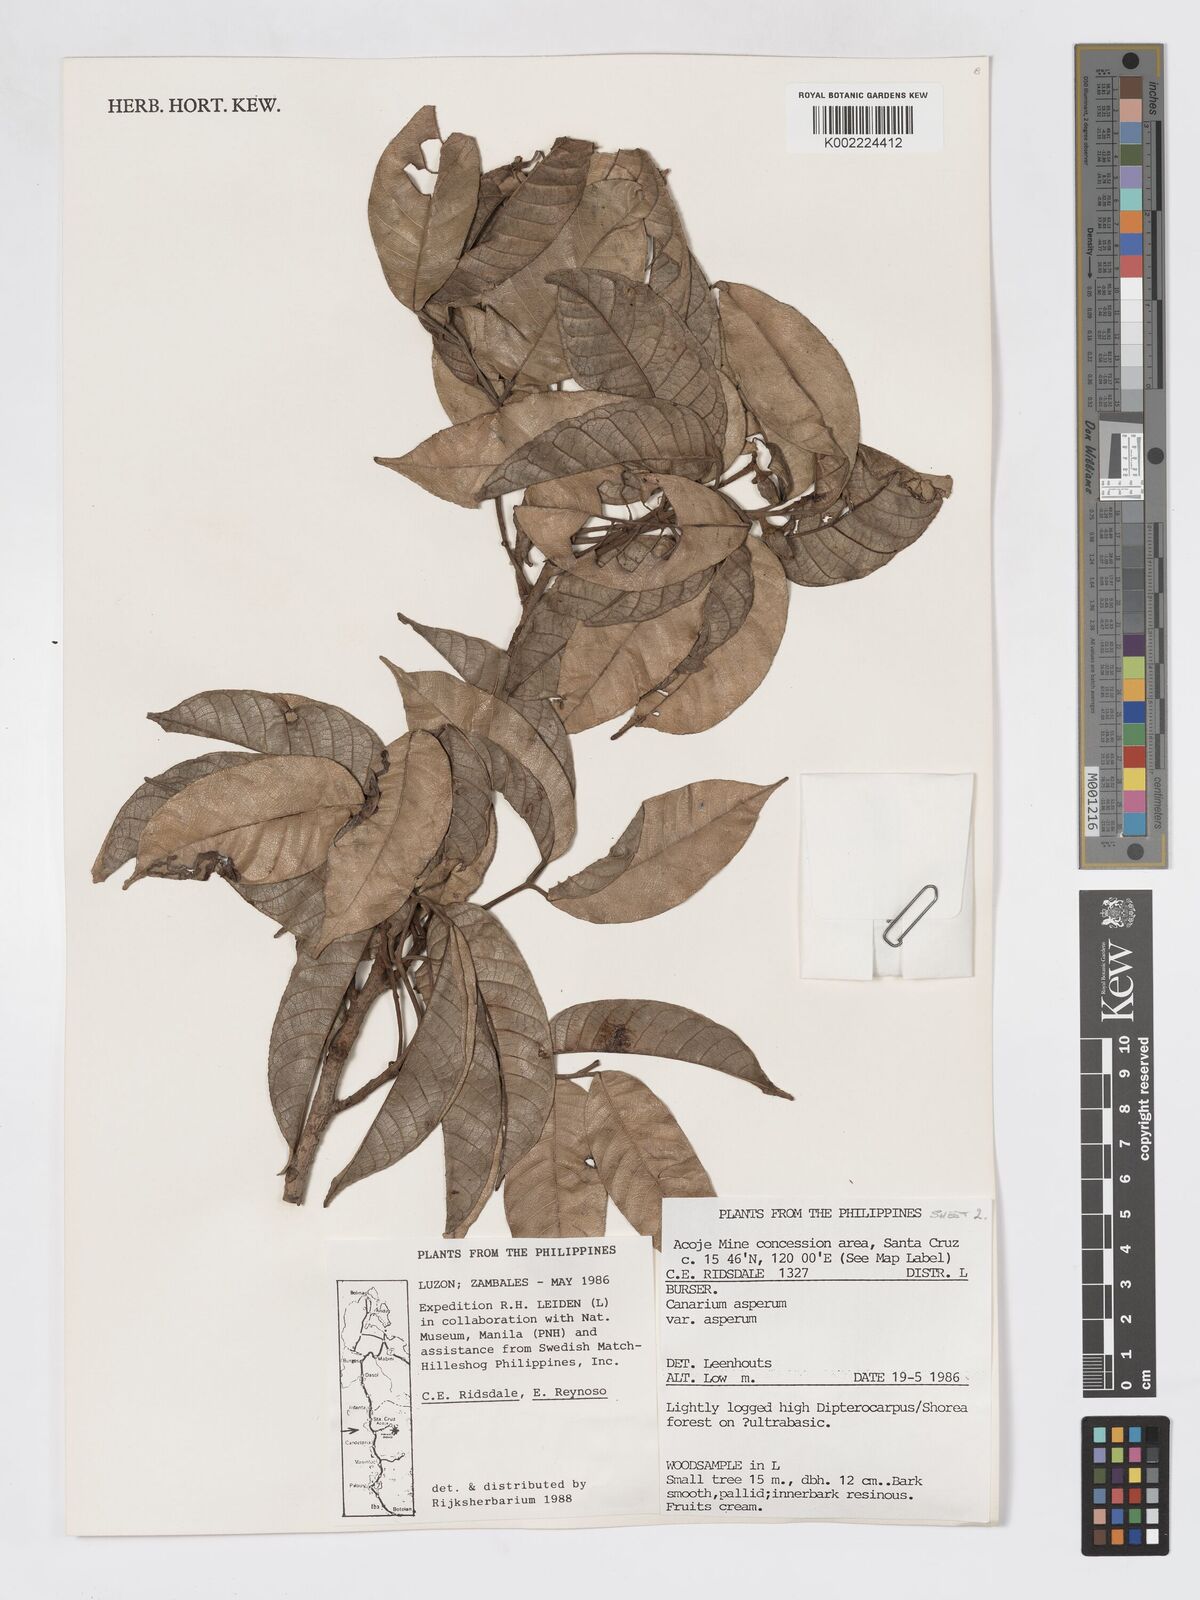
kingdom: Plantae
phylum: Tracheophyta
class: Magnoliopsida
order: Sapindales
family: Burseraceae
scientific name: Burseraceae
